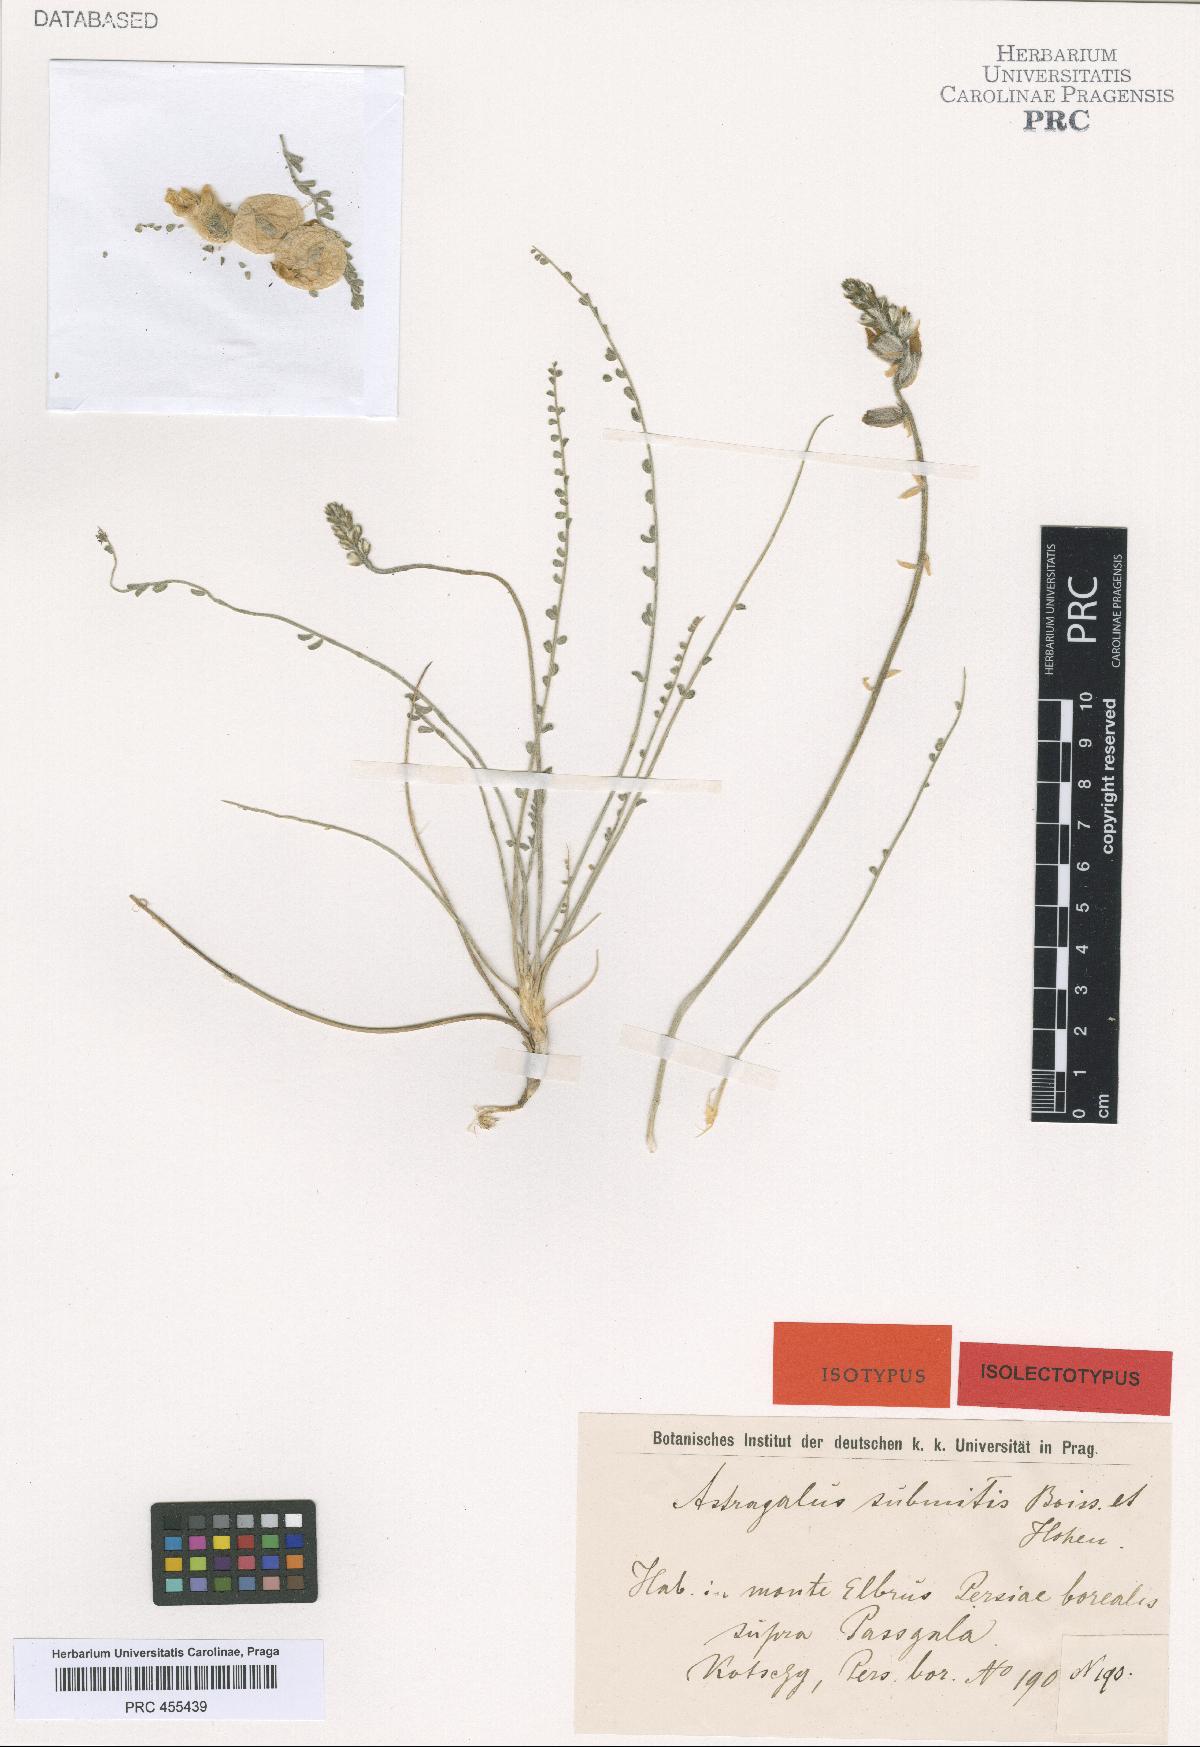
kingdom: Plantae
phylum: Tracheophyta
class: Magnoliopsida
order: Fabales
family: Fabaceae
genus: Astragalus
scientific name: Astragalus submitis
